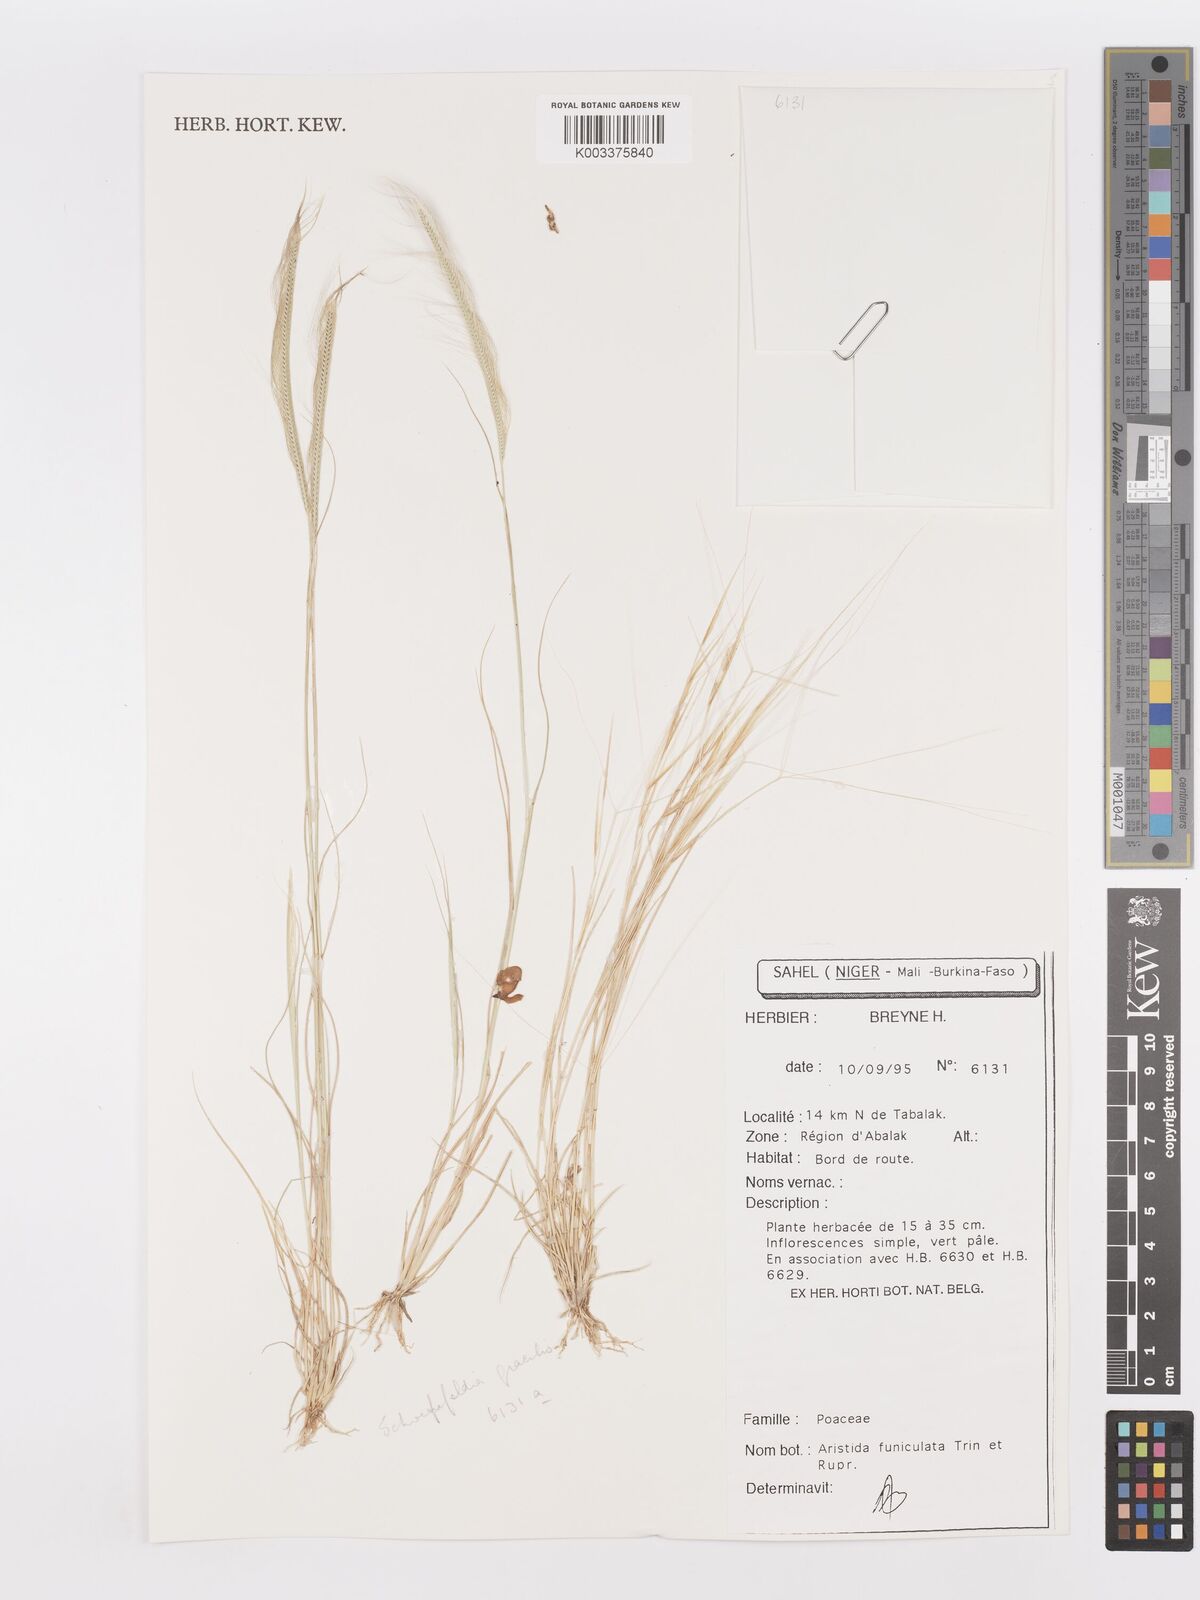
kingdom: Plantae
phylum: Tracheophyta
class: Liliopsida
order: Poales
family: Poaceae
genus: Aristida
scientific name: Aristida funiculata
